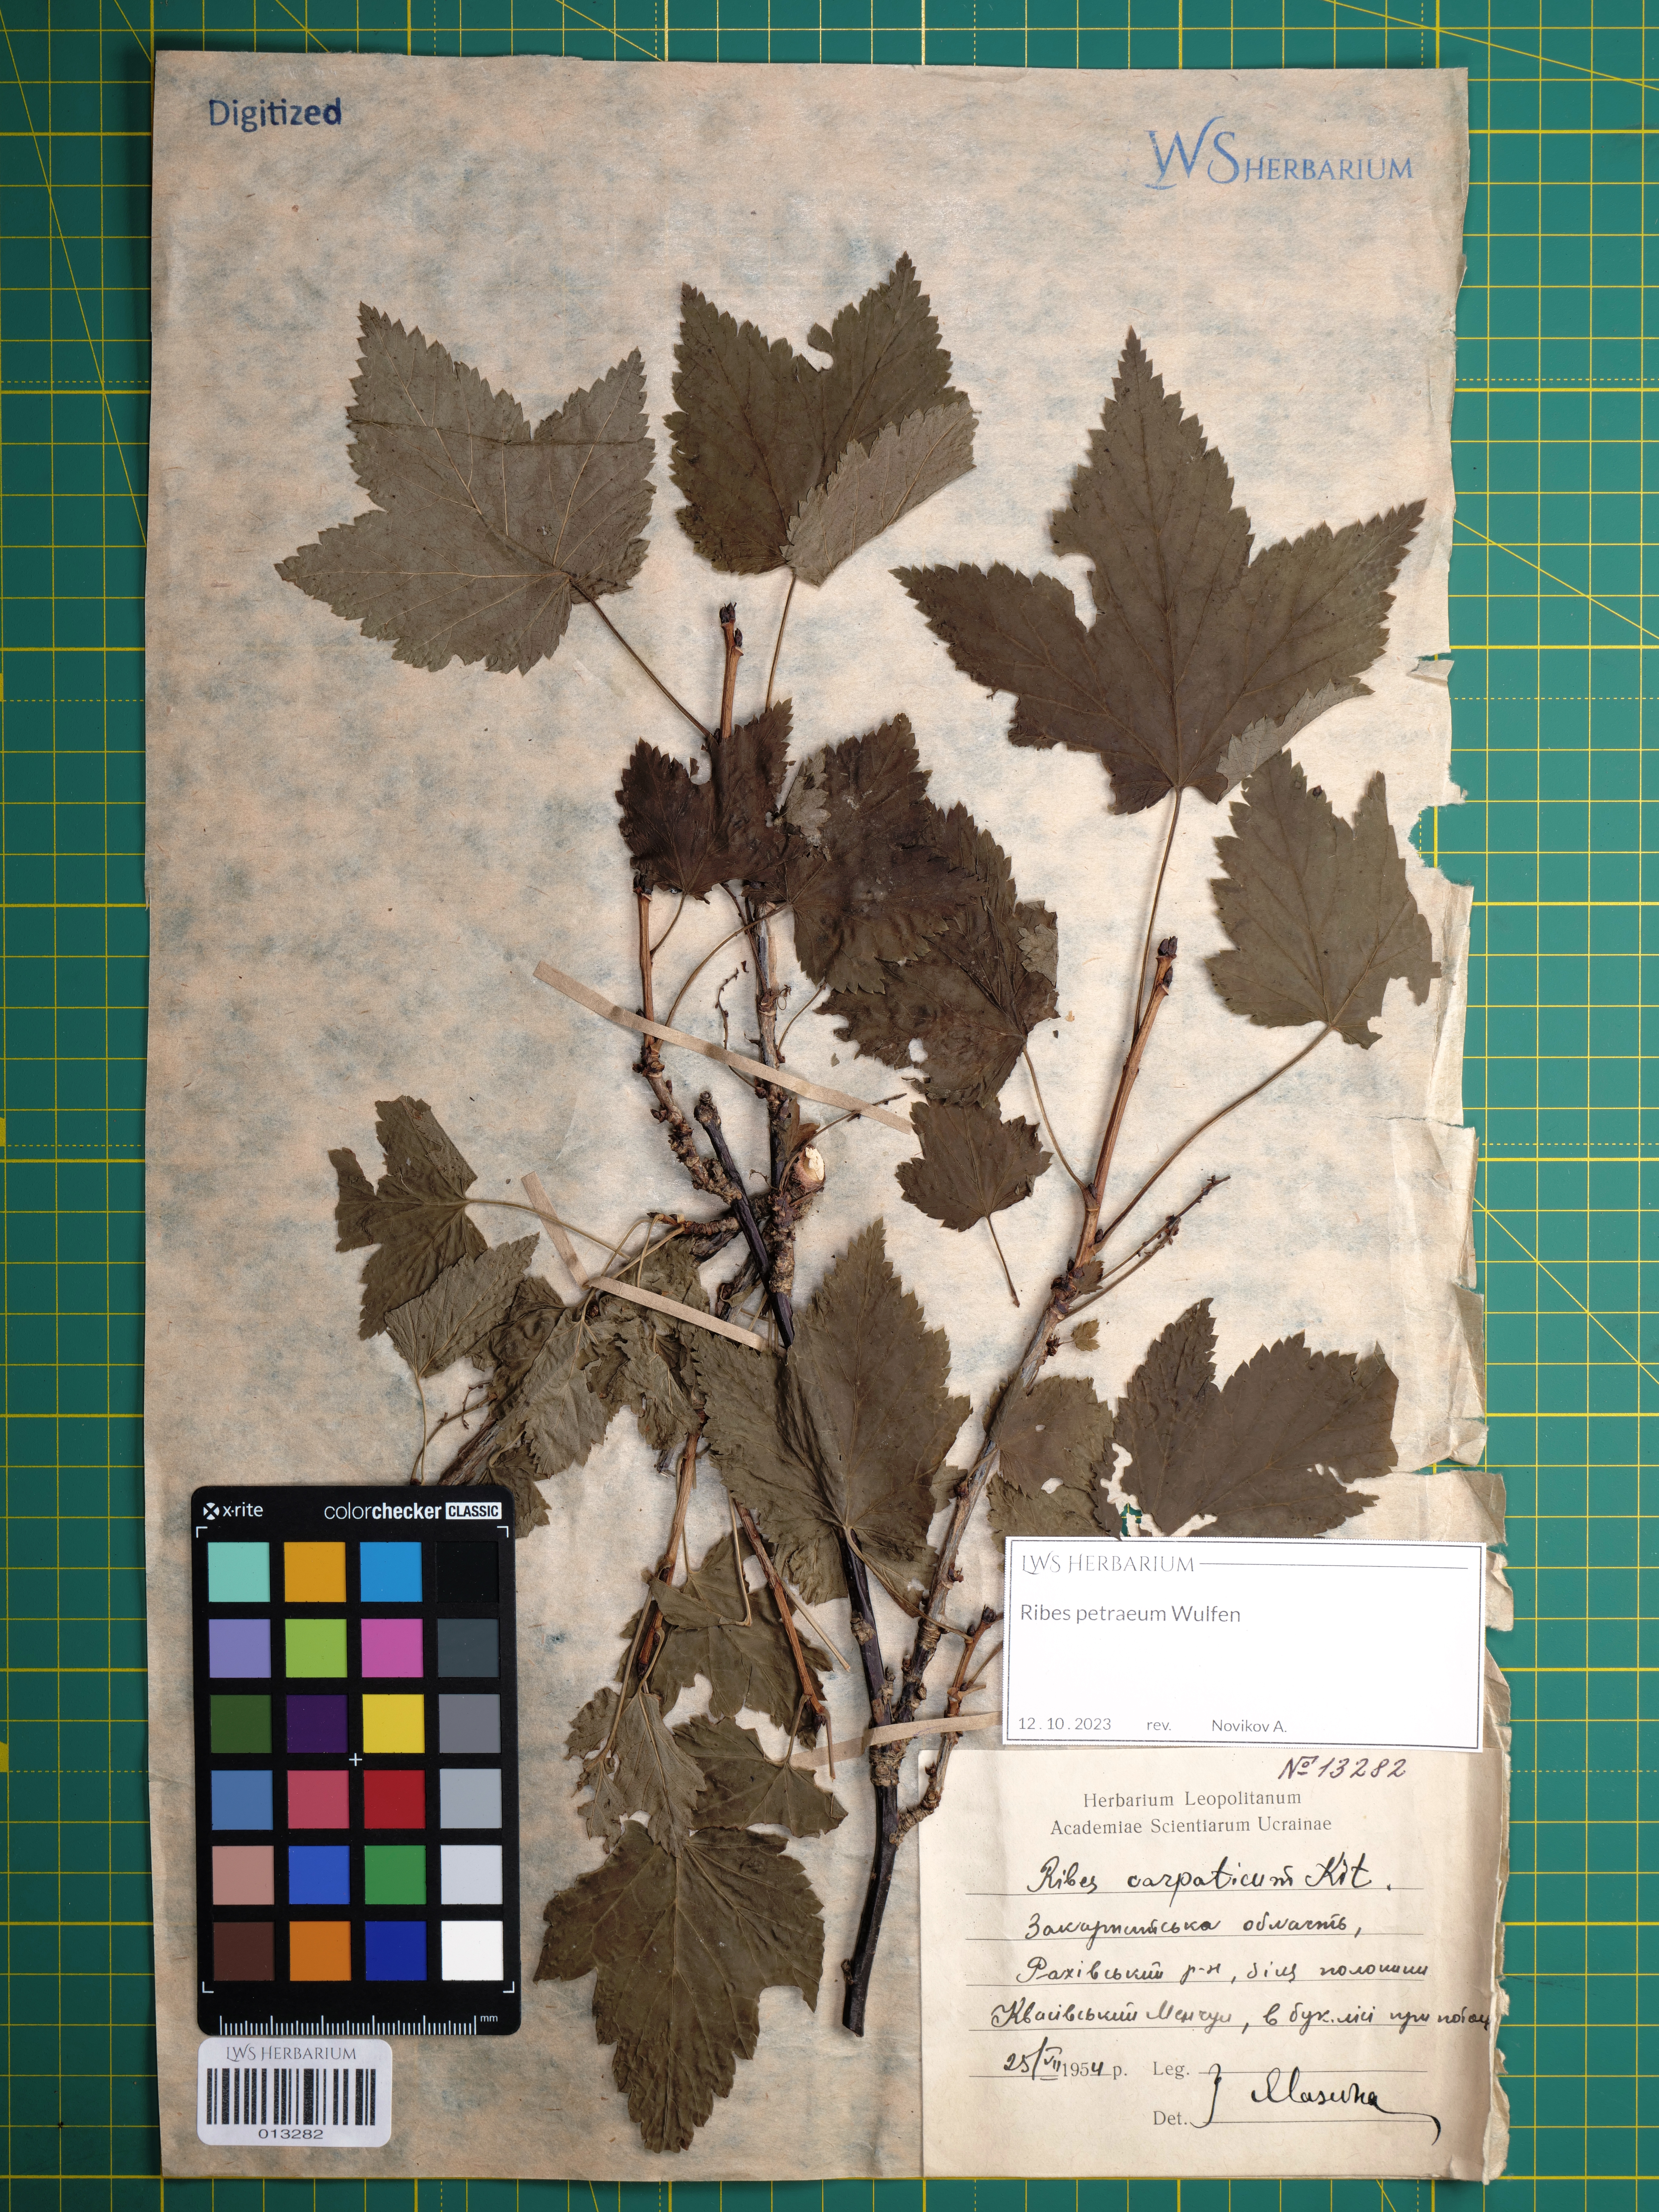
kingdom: Plantae
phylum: Tracheophyta
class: Magnoliopsida
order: Saxifragales
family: Grossulariaceae
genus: Ribes
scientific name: Ribes petraeum
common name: Rock currant
